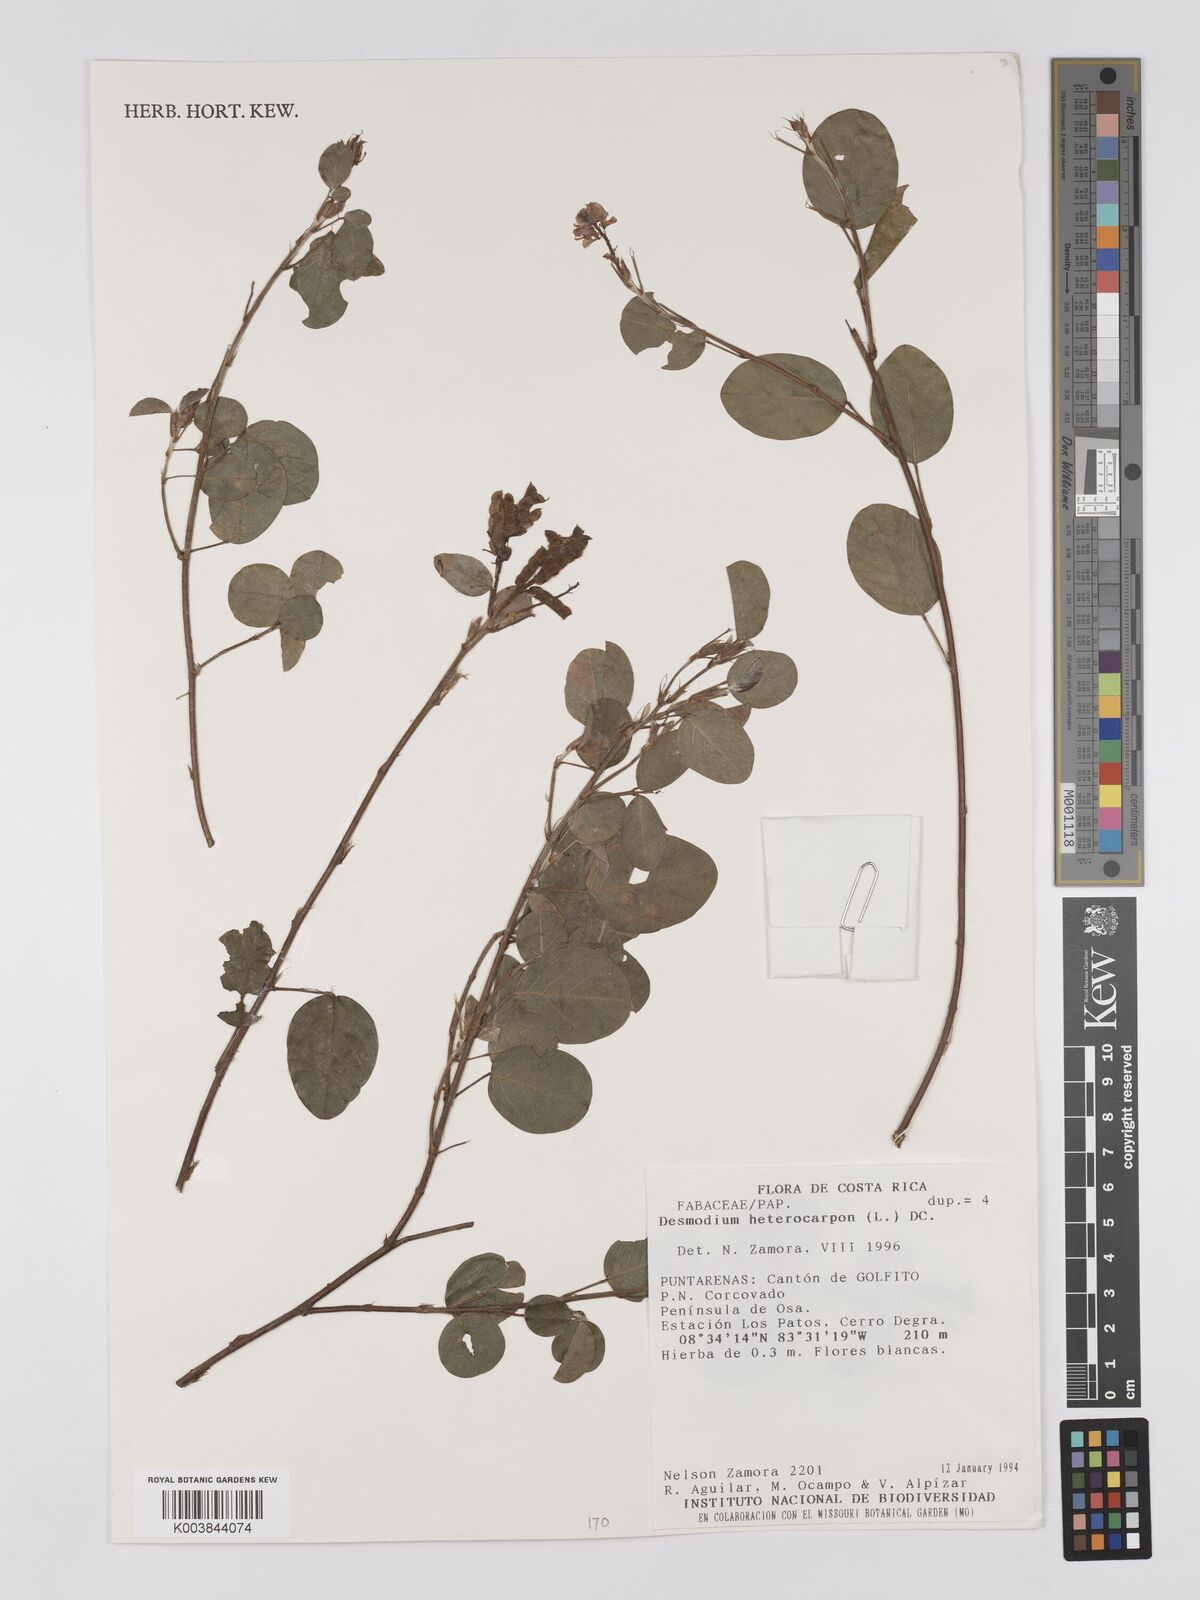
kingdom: Plantae
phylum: Tracheophyta
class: Magnoliopsida
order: Fabales
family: Fabaceae
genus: Grona
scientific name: Grona heterocarpos
